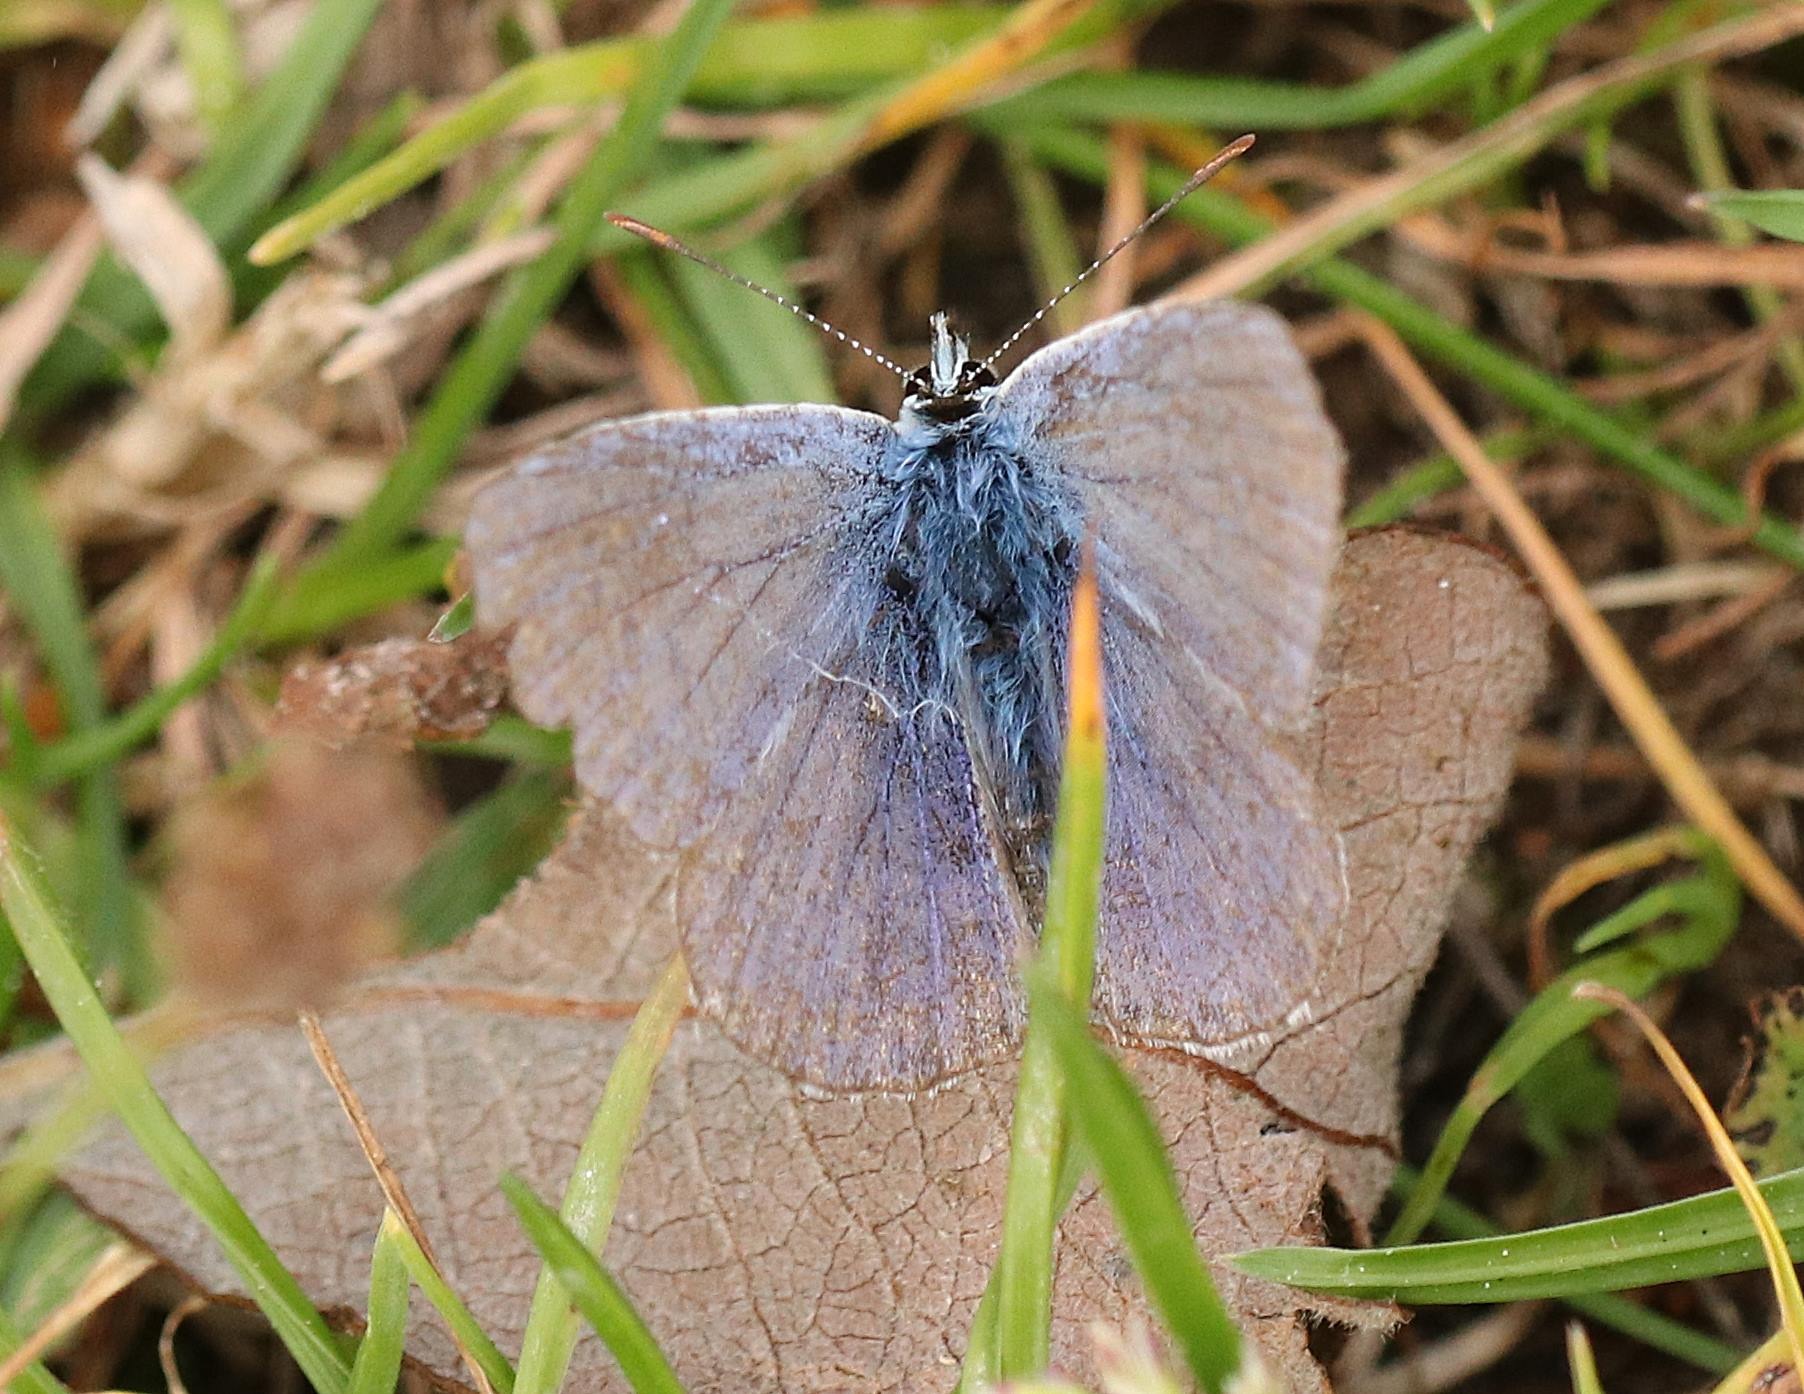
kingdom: Animalia
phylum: Arthropoda
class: Insecta
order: Lepidoptera
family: Lycaenidae
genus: Polyommatus
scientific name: Polyommatus icarus
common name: Almindelig blåfugl
